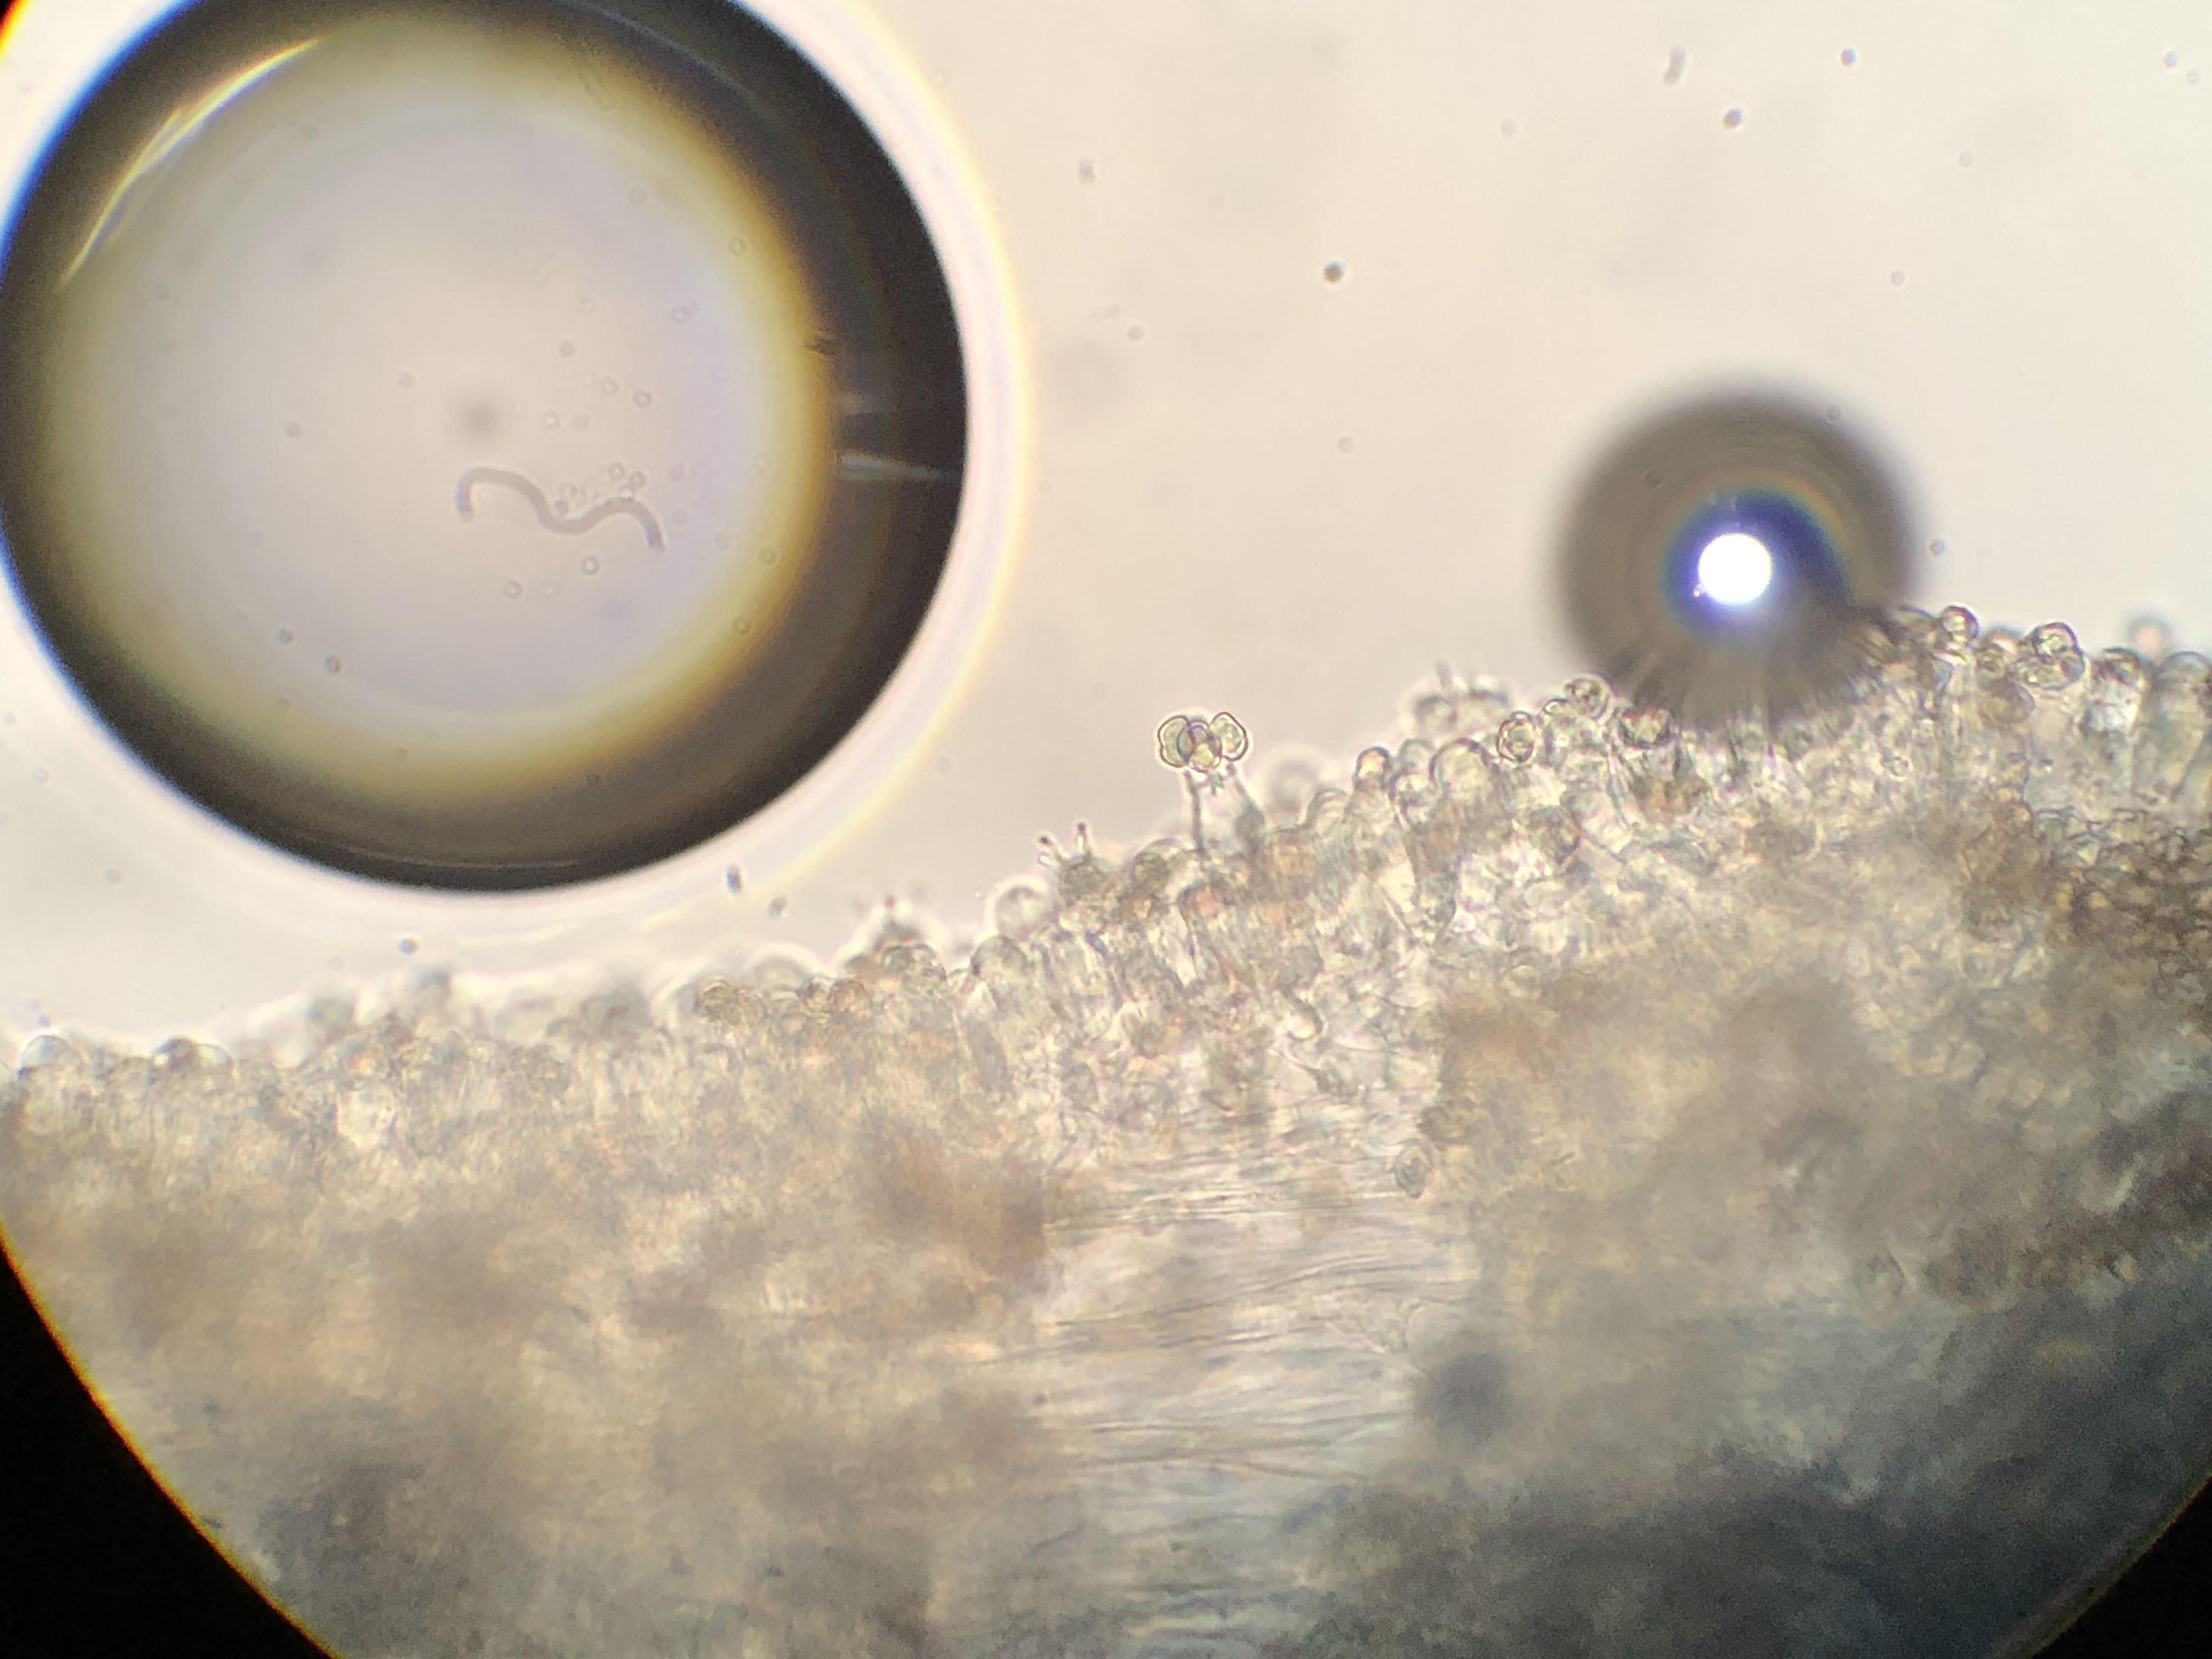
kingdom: Fungi
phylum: Basidiomycota
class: Agaricomycetes
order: Agaricales
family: Entolomataceae
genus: Entoloma
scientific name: Entoloma incarnatofuscescens
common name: tragt-rødblad
